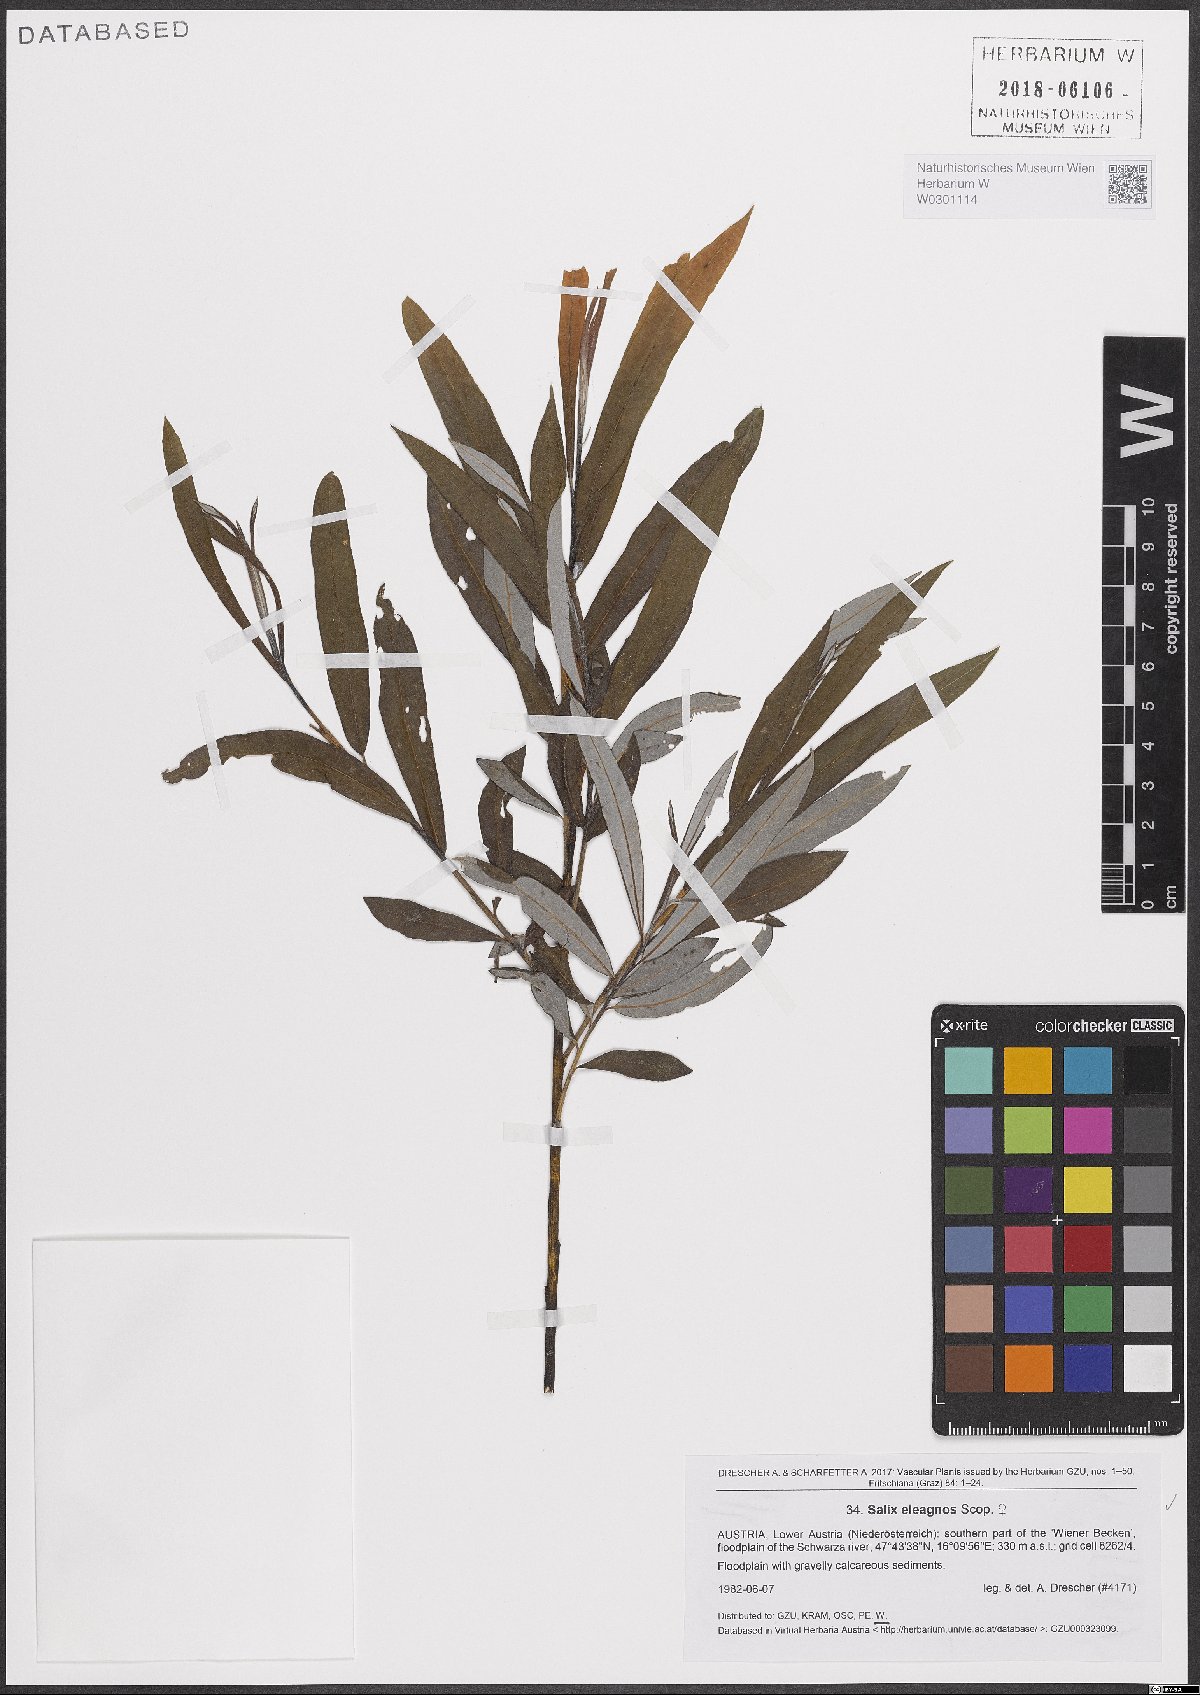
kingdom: Plantae
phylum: Tracheophyta
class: Magnoliopsida
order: Malpighiales
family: Salicaceae
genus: Salix
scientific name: Salix eleagnos
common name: Elaeagnus willow
